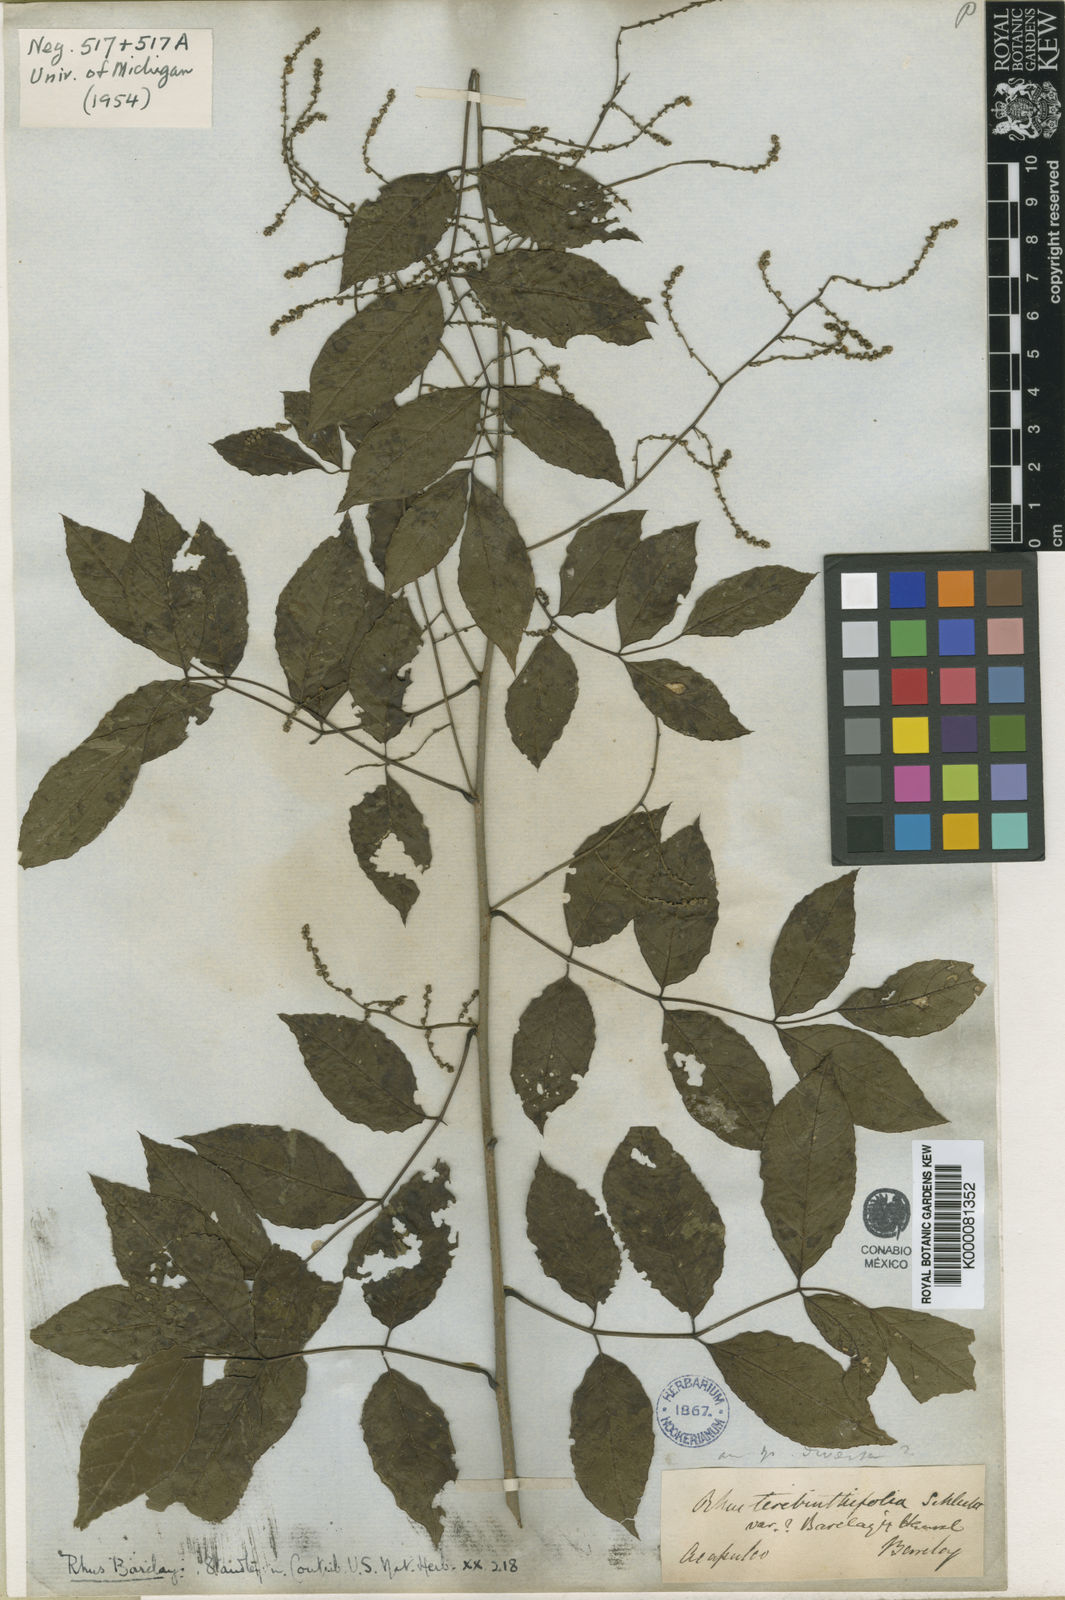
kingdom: Plantae
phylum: Tracheophyta
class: Magnoliopsida
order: Sapindales
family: Anacardiaceae
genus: Rhus
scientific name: Rhus barclayi
